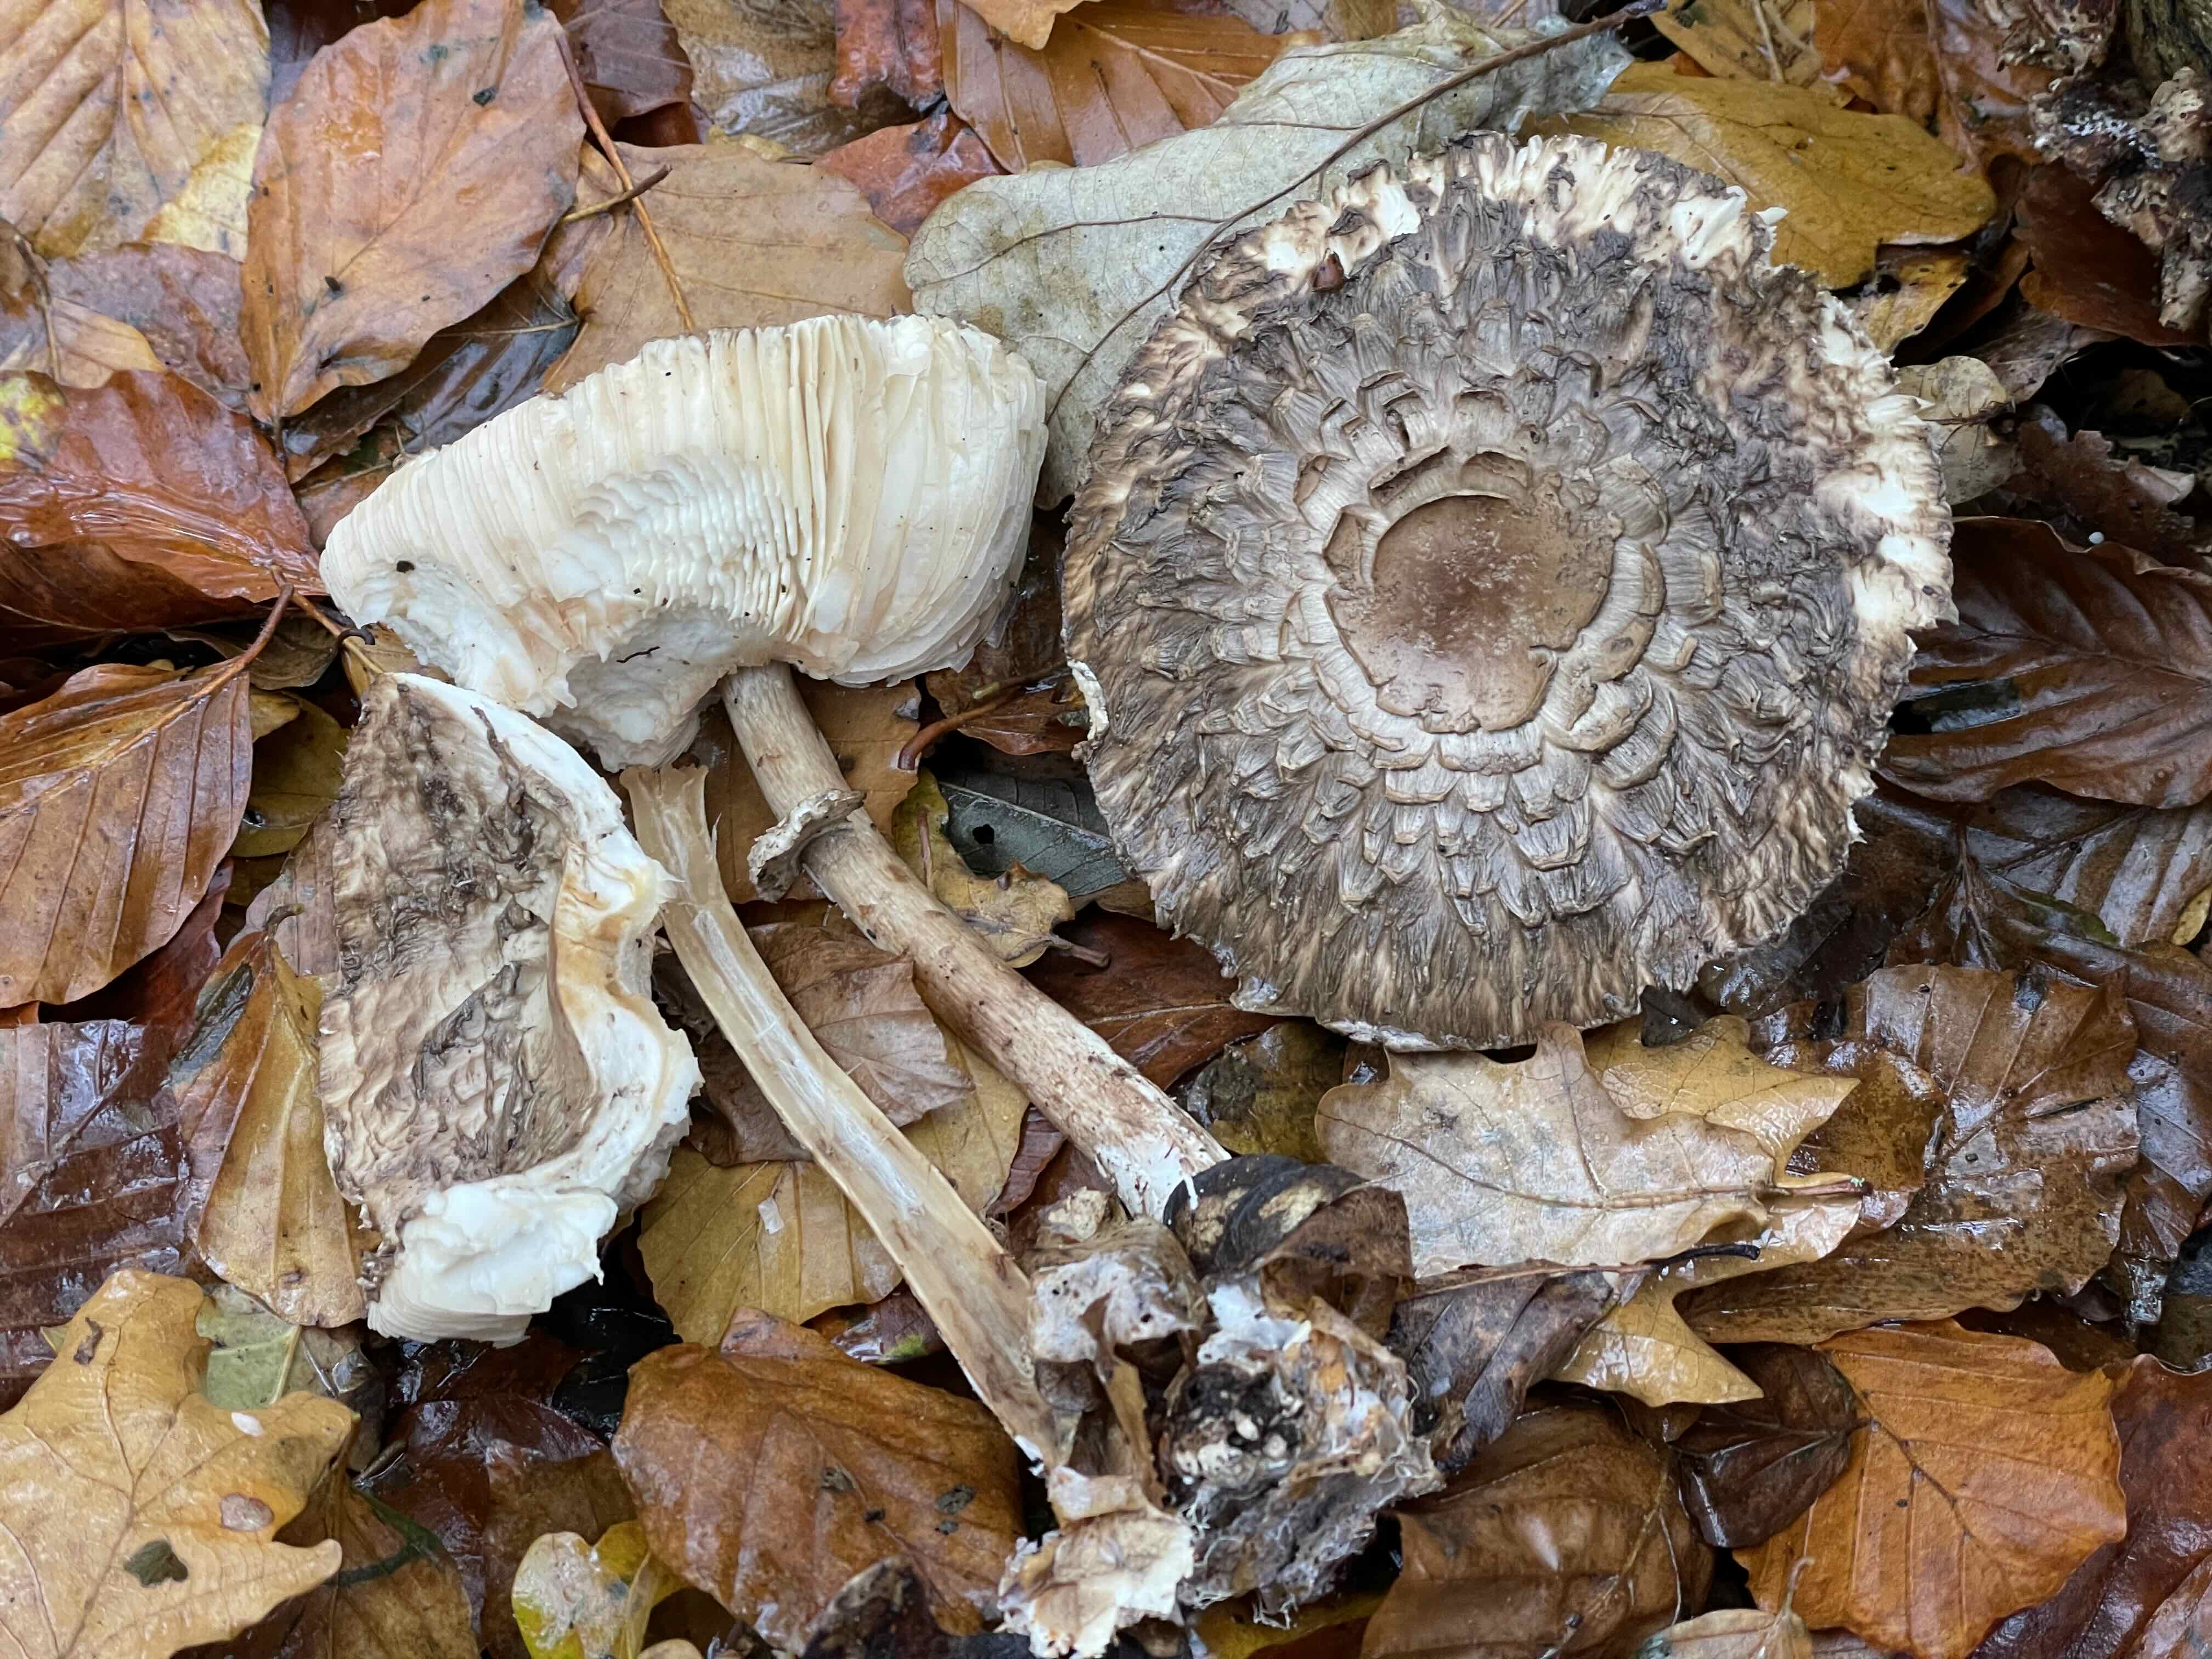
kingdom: Fungi
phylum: Basidiomycota
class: Agaricomycetes
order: Agaricales
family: Agaricaceae
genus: Chlorophyllum
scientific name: Chlorophyllum olivieri
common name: almindelig rabarberhat
